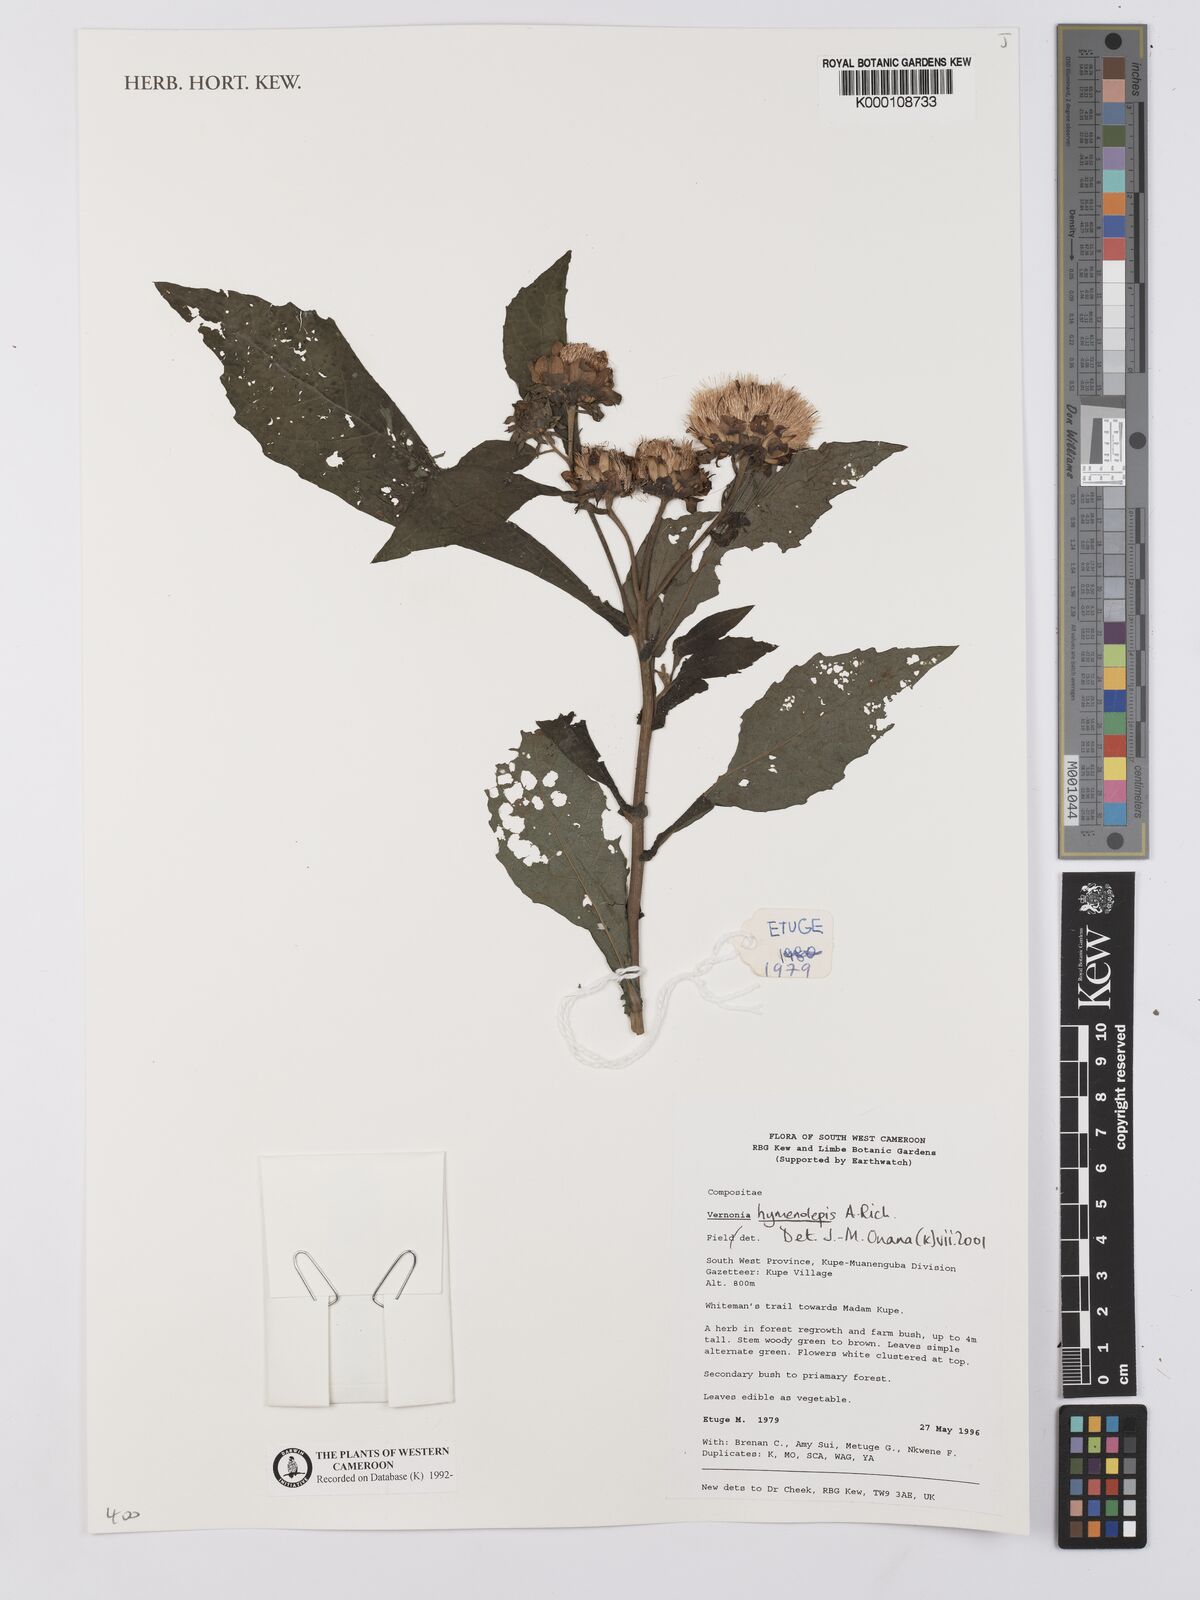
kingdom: Plantae
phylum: Tracheophyta
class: Magnoliopsida
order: Asterales
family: Asteraceae
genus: Baccharoides
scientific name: Baccharoides hymenolepis
